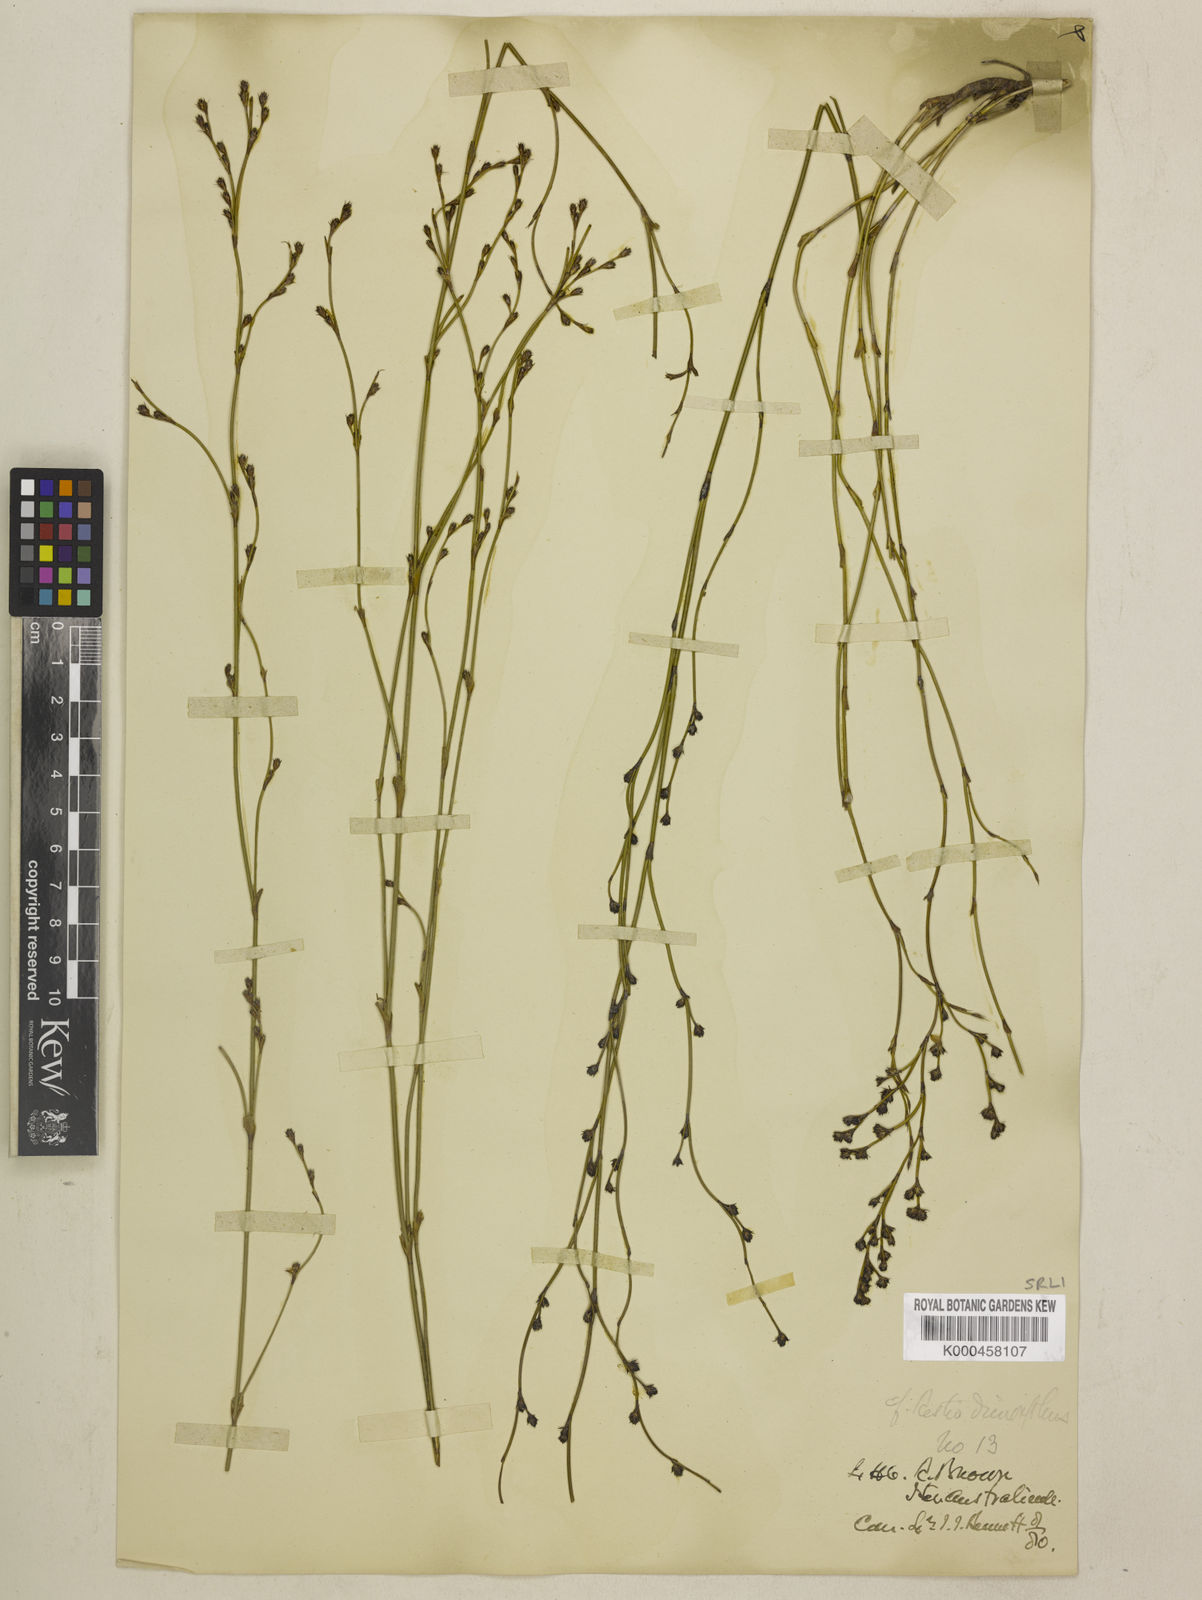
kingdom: Plantae
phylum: Tracheophyta
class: Liliopsida
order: Poales
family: Restionaceae
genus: Chordifex
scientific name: Chordifex dimorphus
